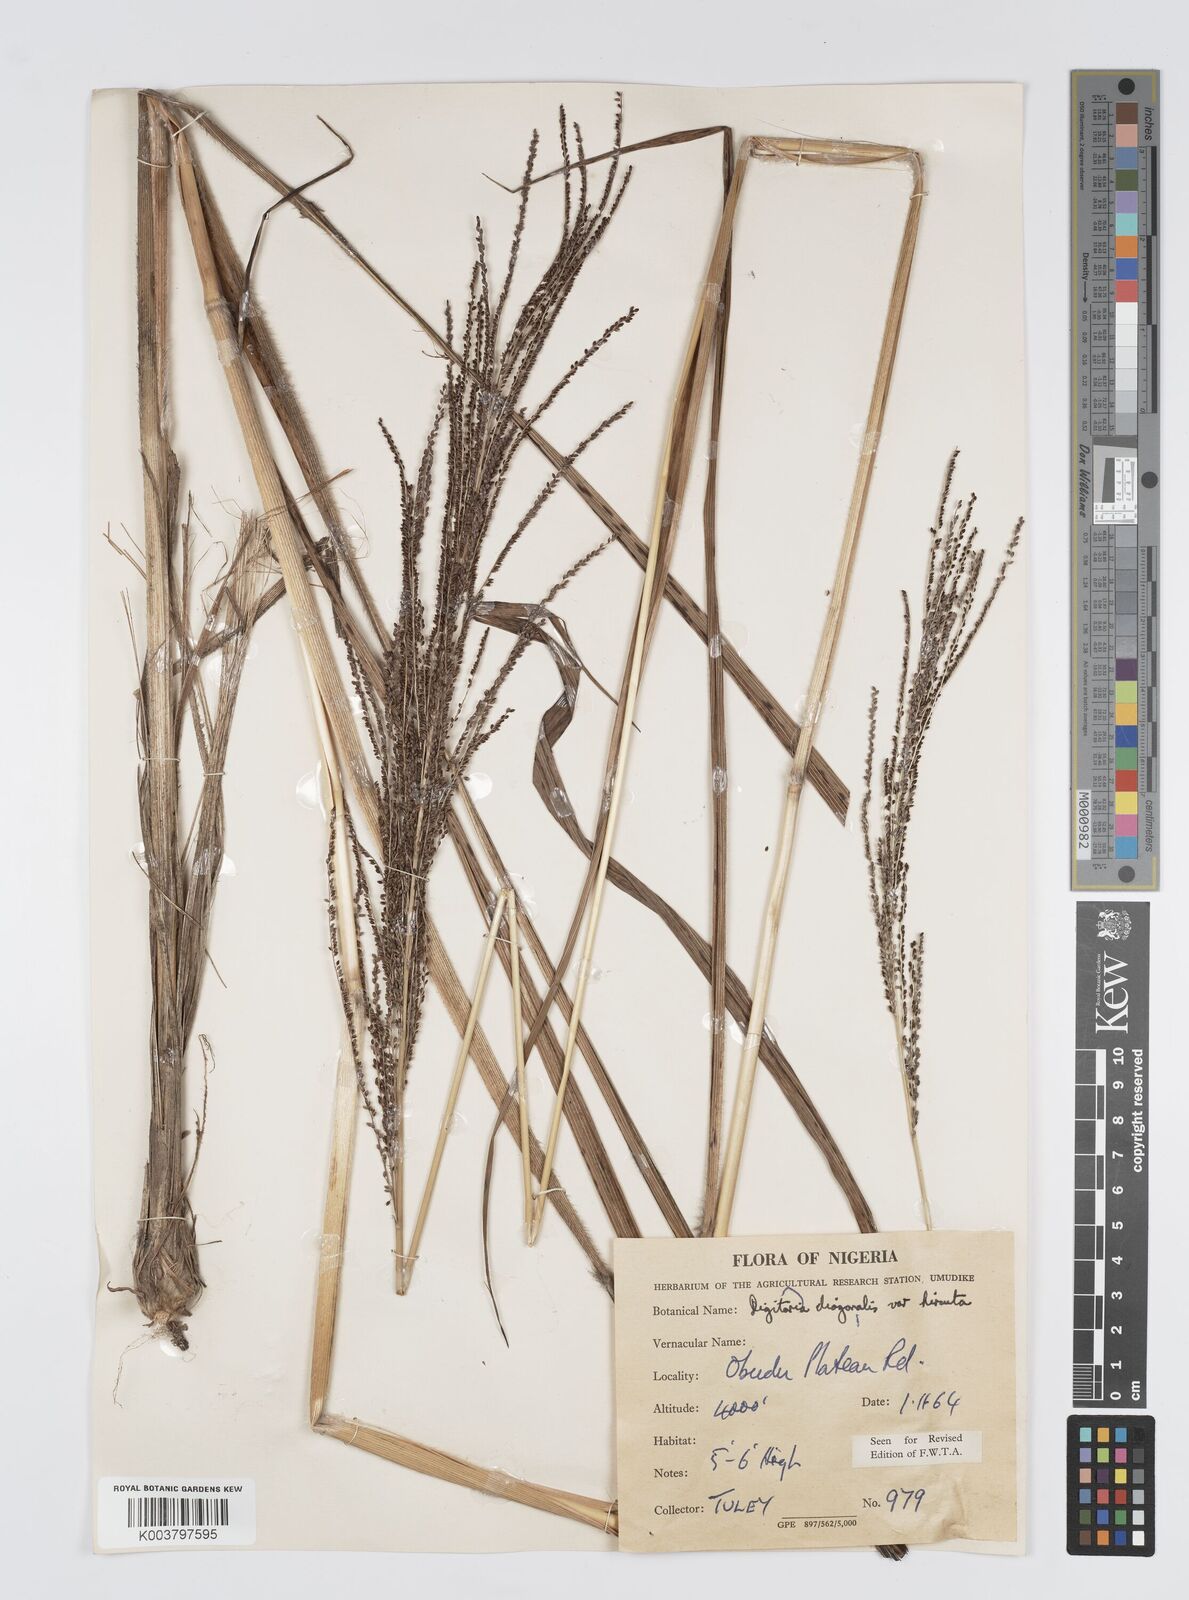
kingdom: Plantae
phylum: Tracheophyta
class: Liliopsida
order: Poales
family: Poaceae
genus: Digitaria
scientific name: Digitaria diagonalis
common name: Brown-seed finger grass
